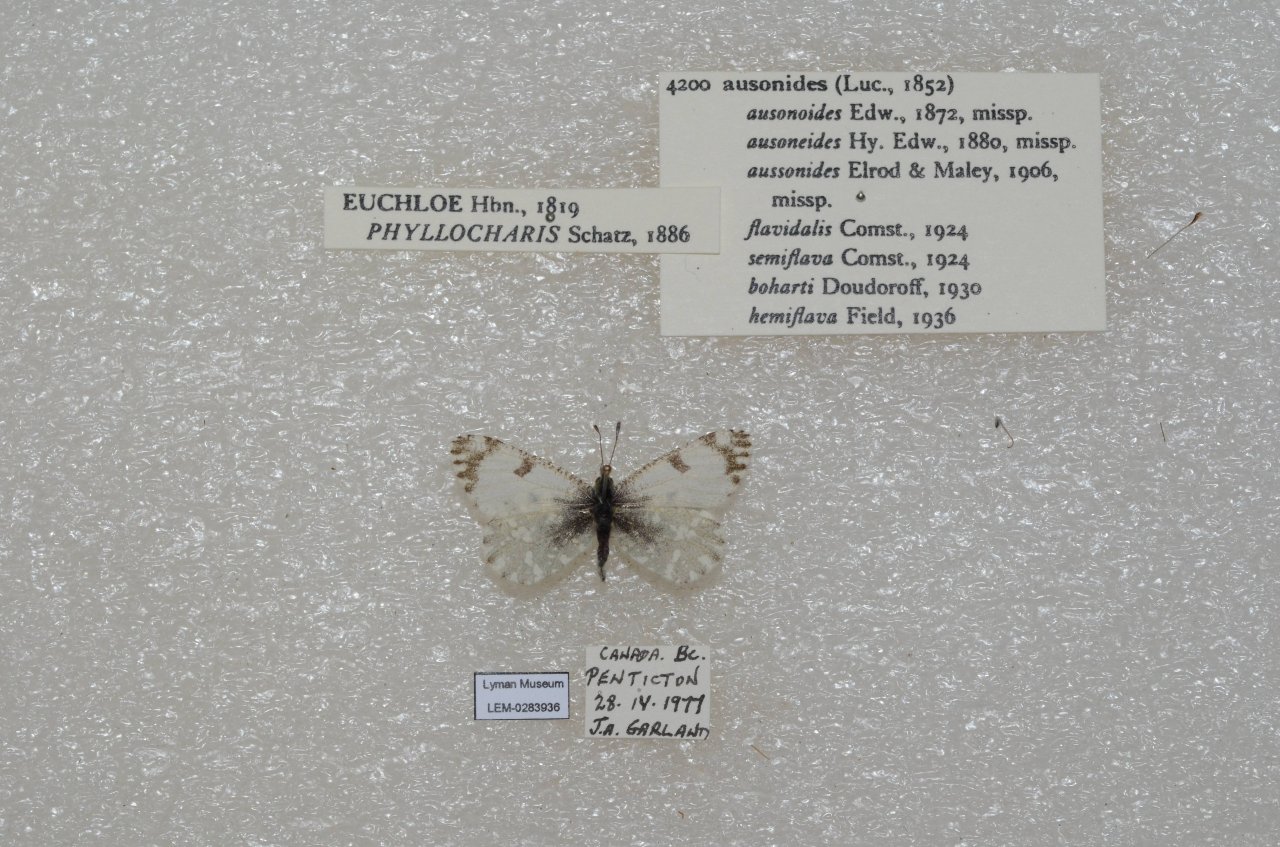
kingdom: Animalia
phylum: Arthropoda
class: Insecta
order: Lepidoptera
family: Pieridae
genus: Euchloe
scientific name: Euchloe ausonides
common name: Large Marble
